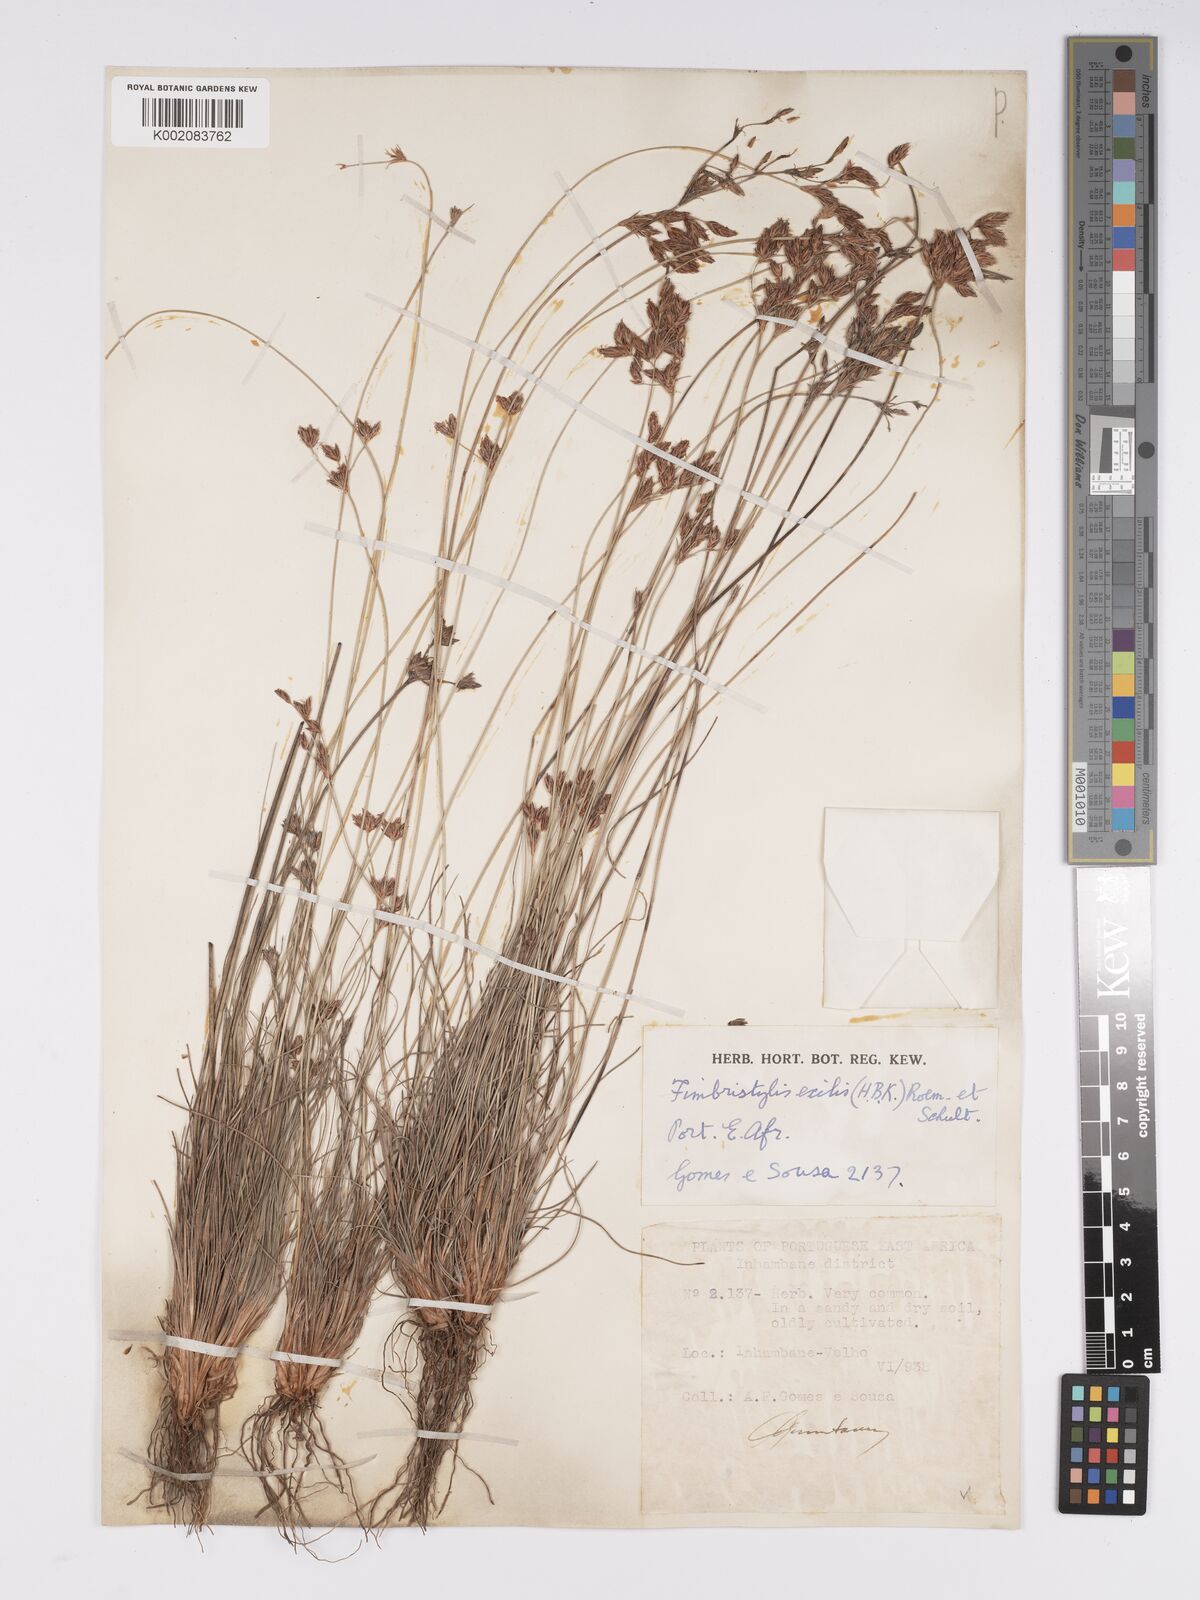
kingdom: Plantae
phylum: Tracheophyta
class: Liliopsida
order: Poales
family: Cyperaceae
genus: Bulbostylis
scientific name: Bulbostylis hispidula
